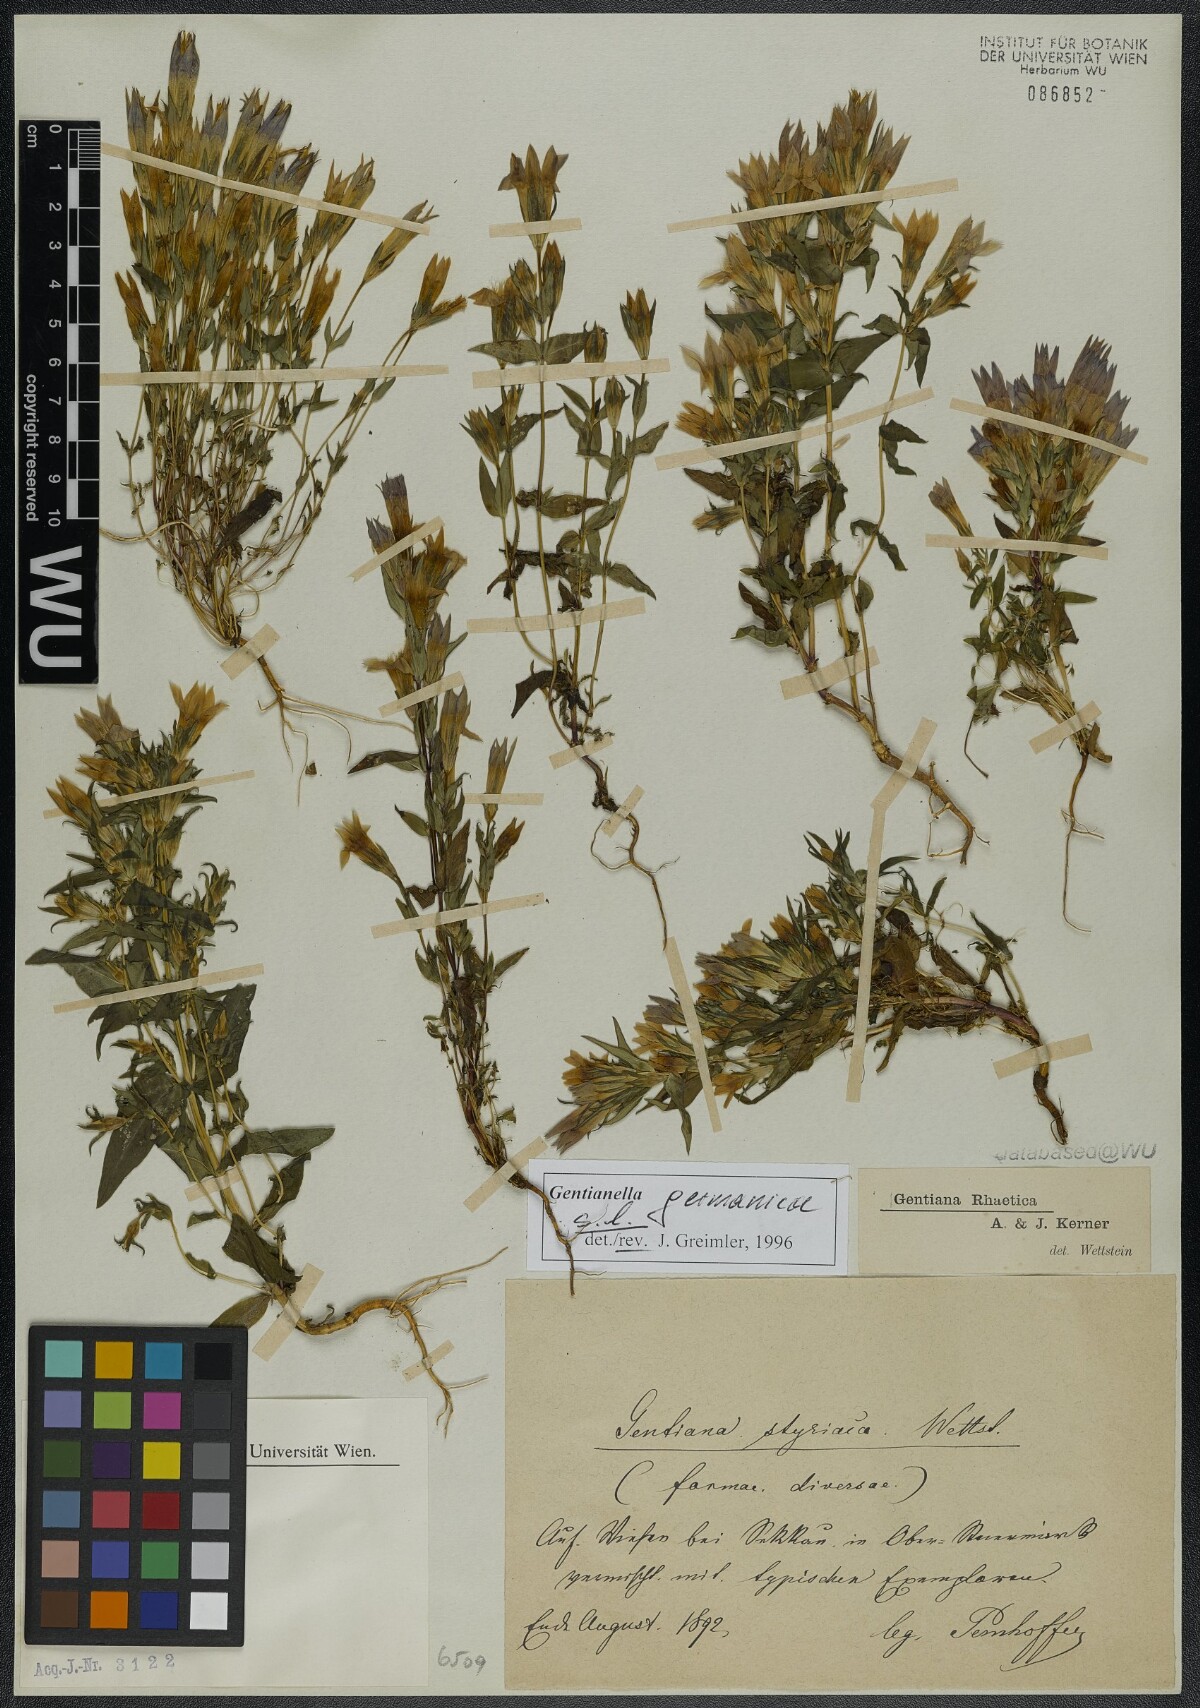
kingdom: Plantae
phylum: Tracheophyta
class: Magnoliopsida
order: Gentianales
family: Gentianaceae
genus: Gentianella
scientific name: Gentianella germanica
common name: Chiltern-gentian
